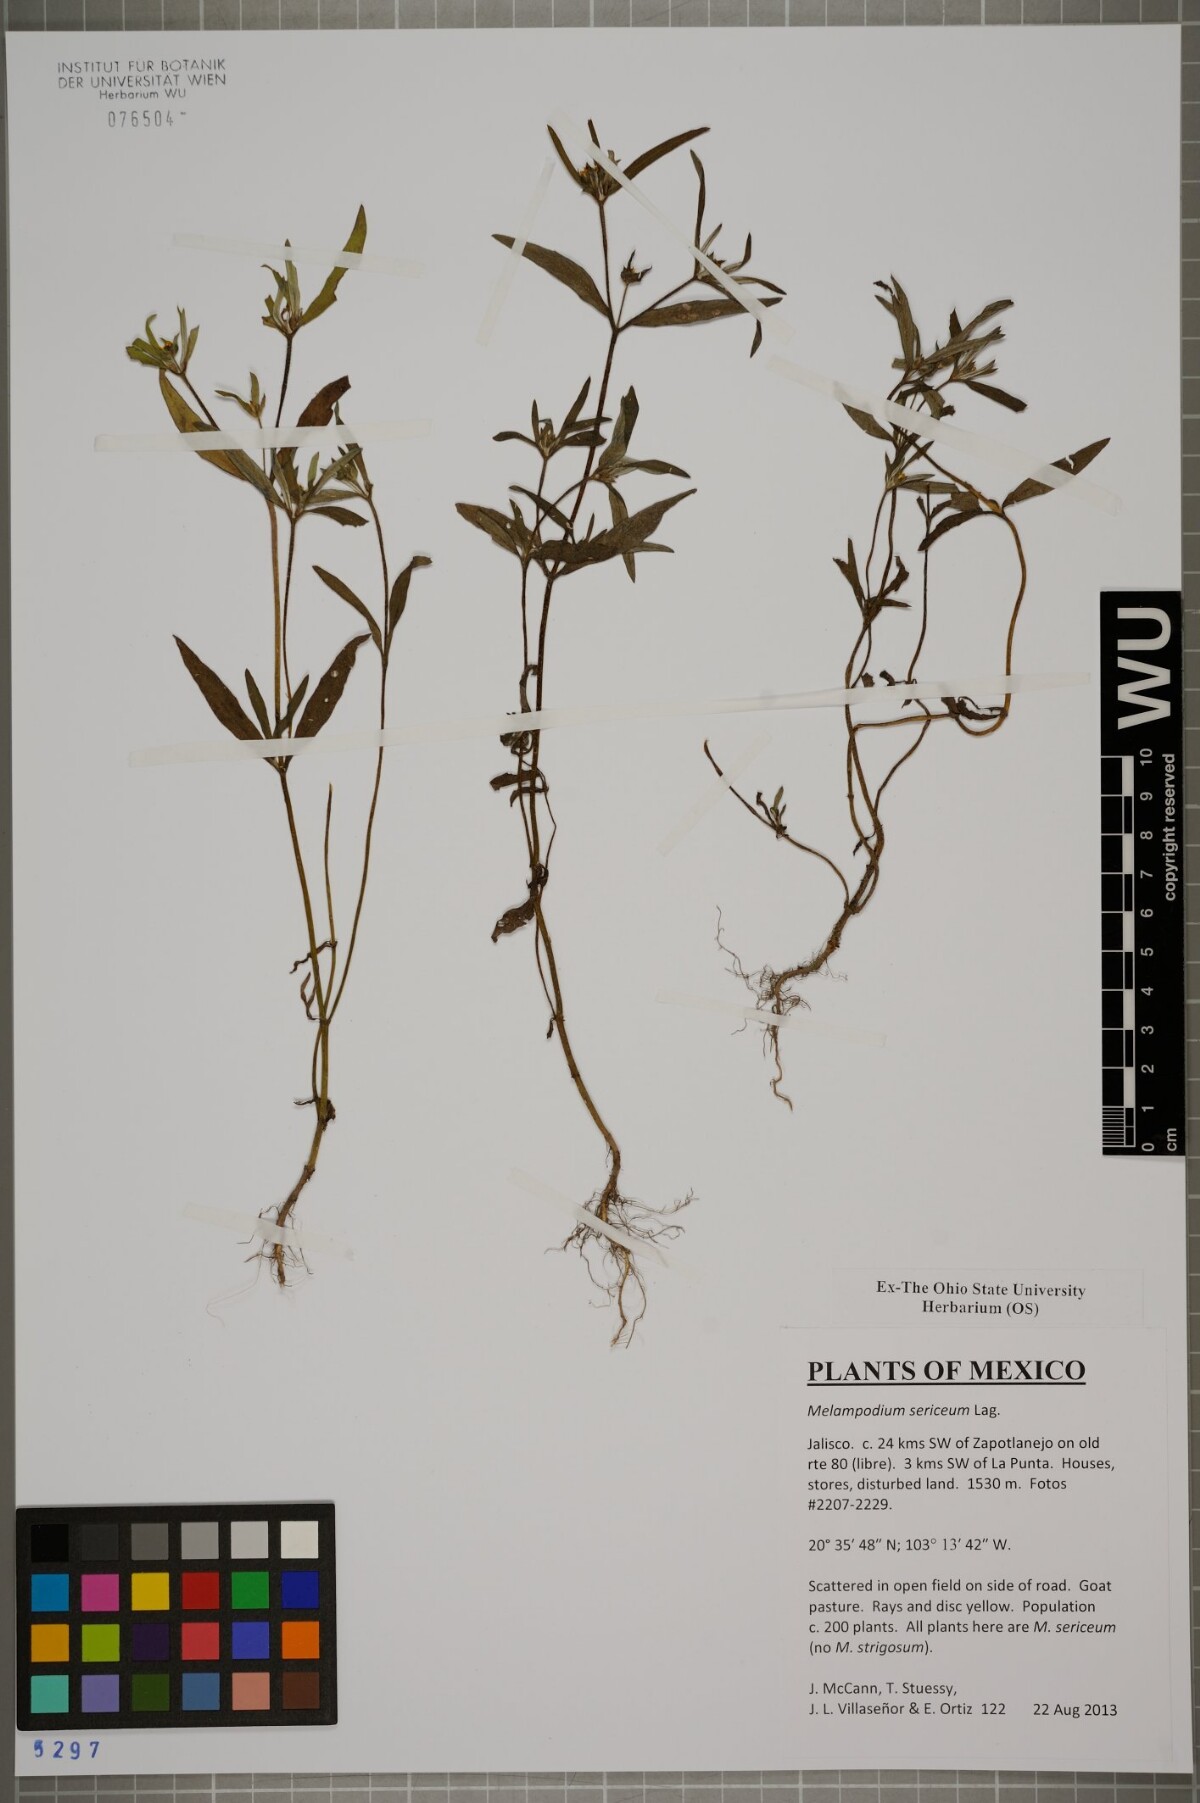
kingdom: Plantae
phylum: Tracheophyta
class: Magnoliopsida
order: Asterales
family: Asteraceae
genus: Melampodium
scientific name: Melampodium sericeum
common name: Rough blackfoot
